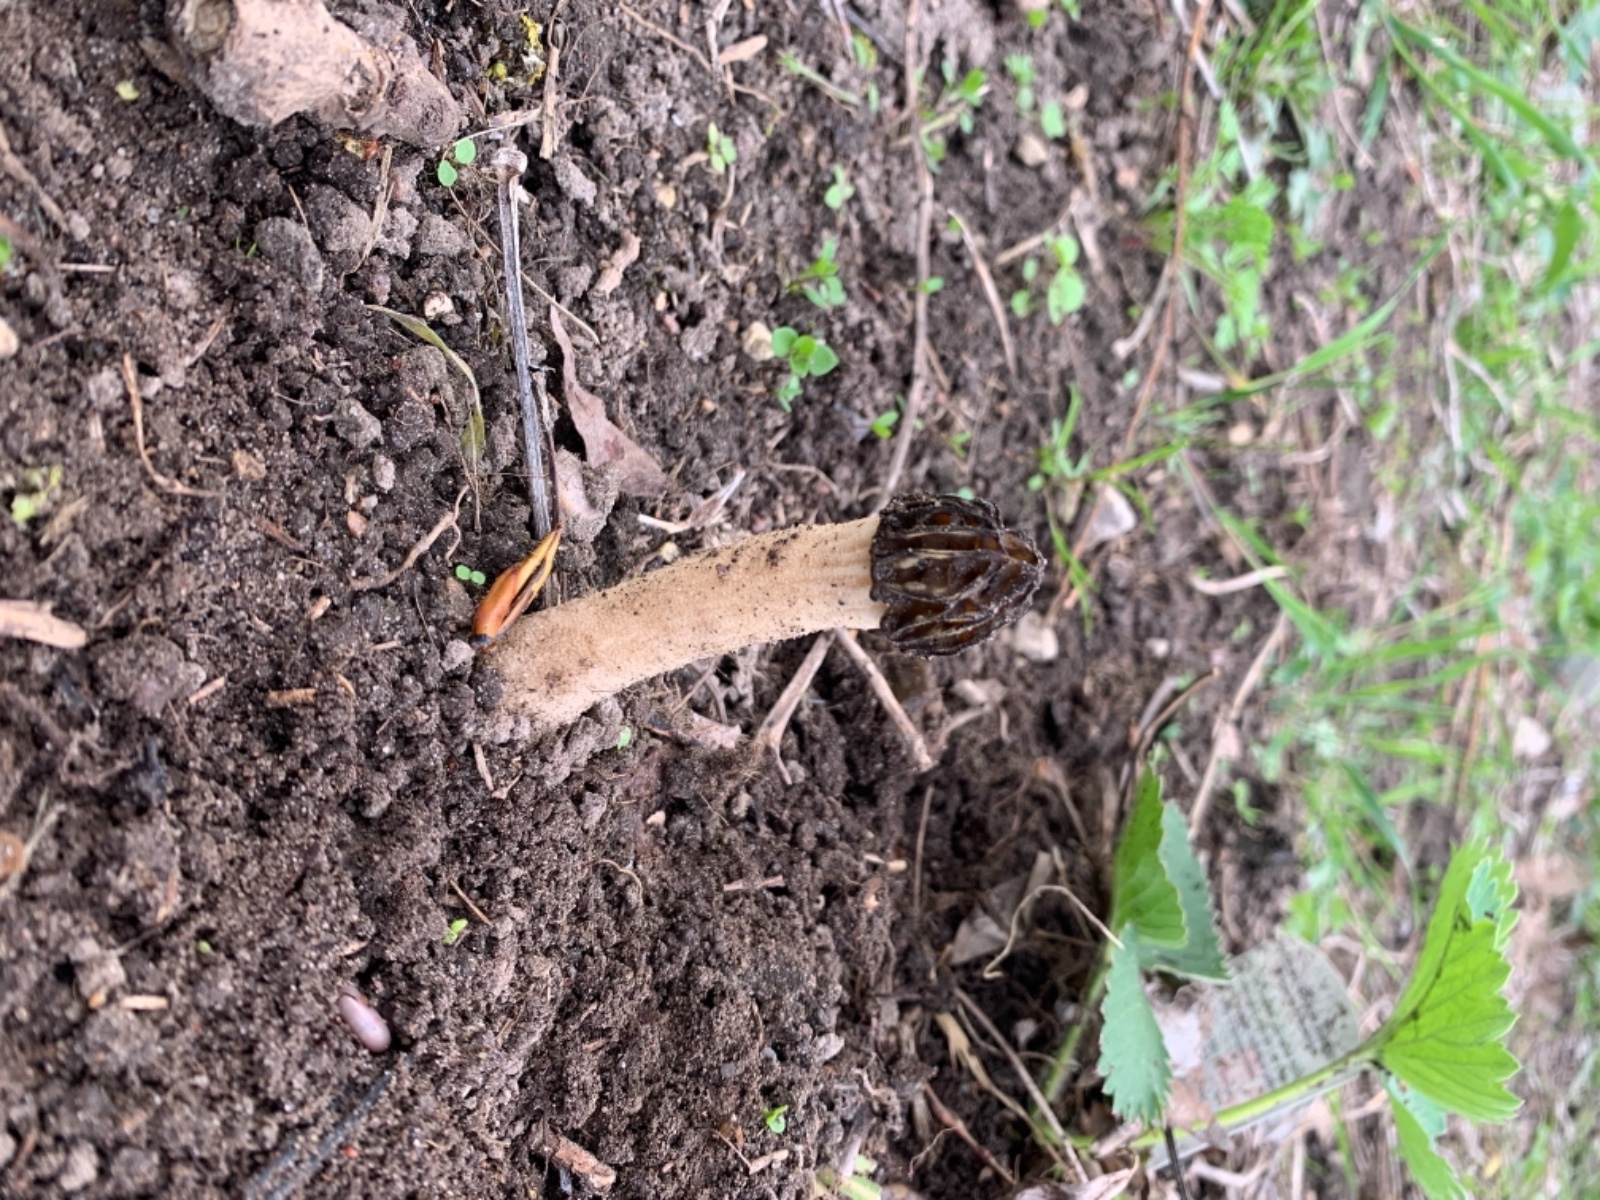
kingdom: Fungi
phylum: Ascomycota
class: Pezizomycetes
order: Pezizales
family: Morchellaceae
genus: Morchella
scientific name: Morchella semilibera
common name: hætte-morkel
